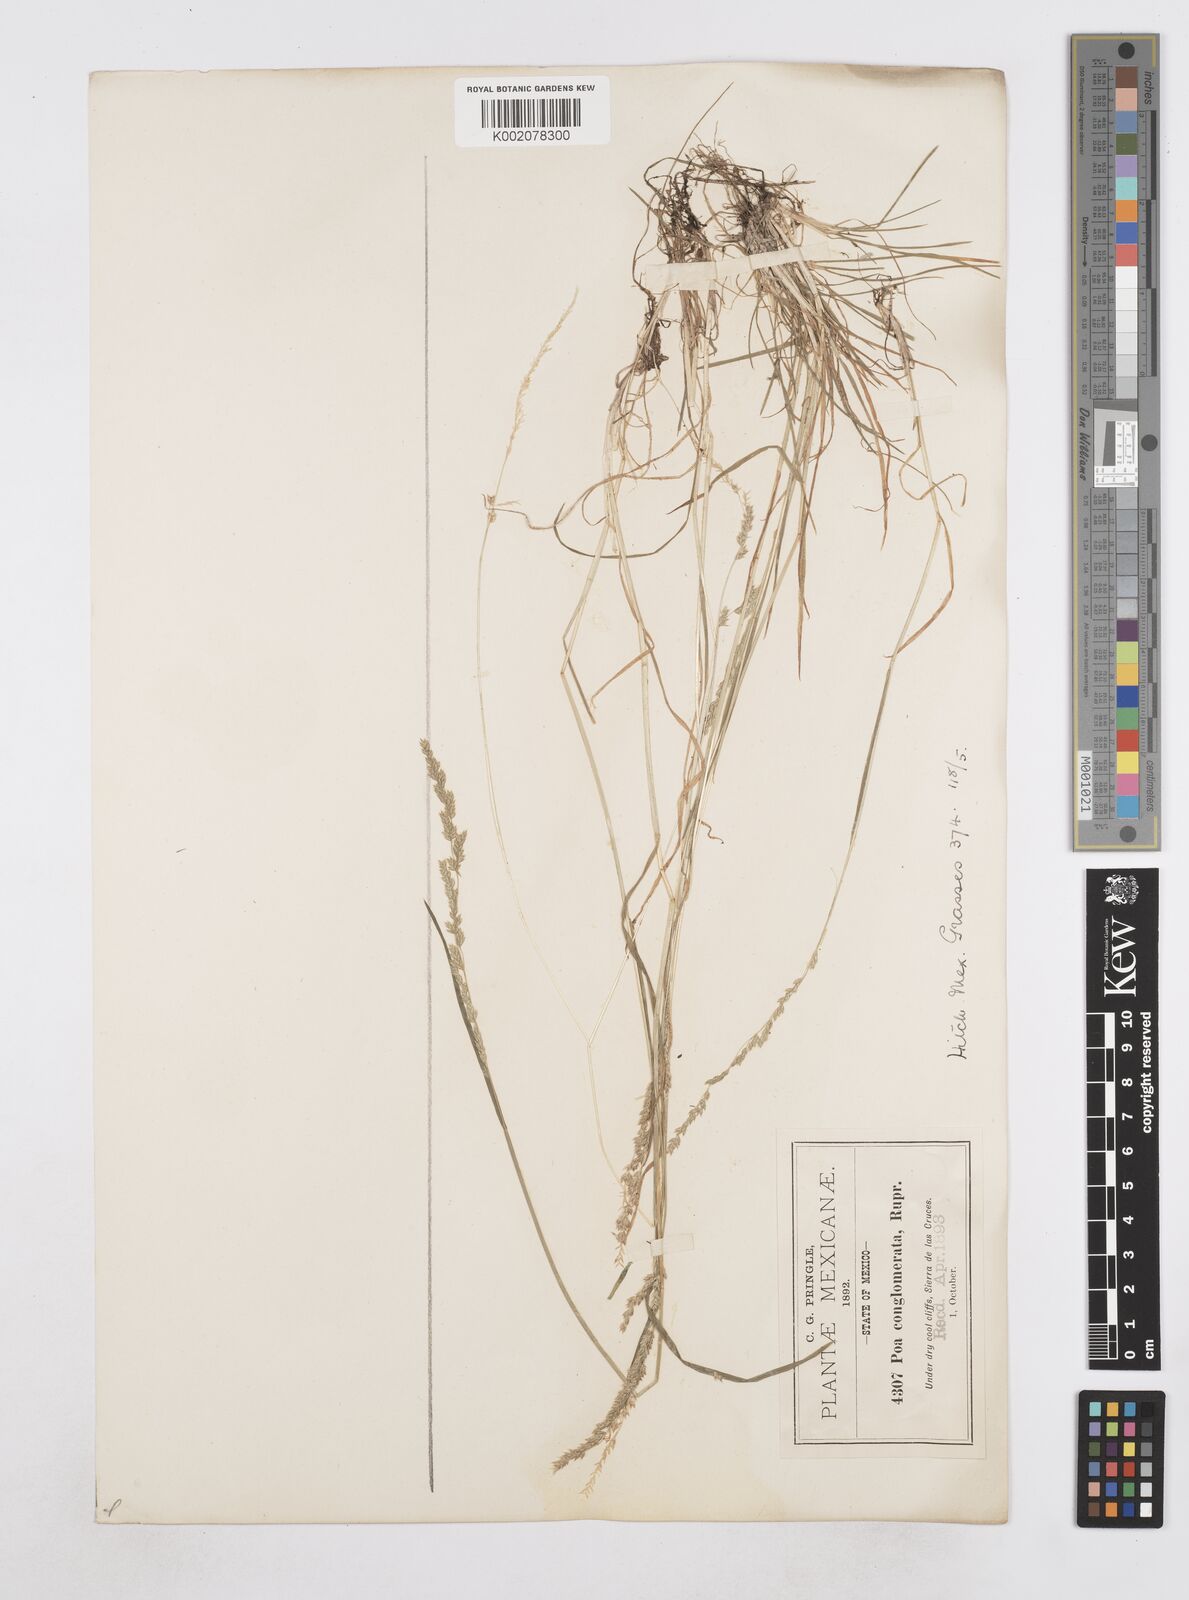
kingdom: Plantae
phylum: Tracheophyta
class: Liliopsida
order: Poales
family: Poaceae
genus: Poa
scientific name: Poa scaberula
